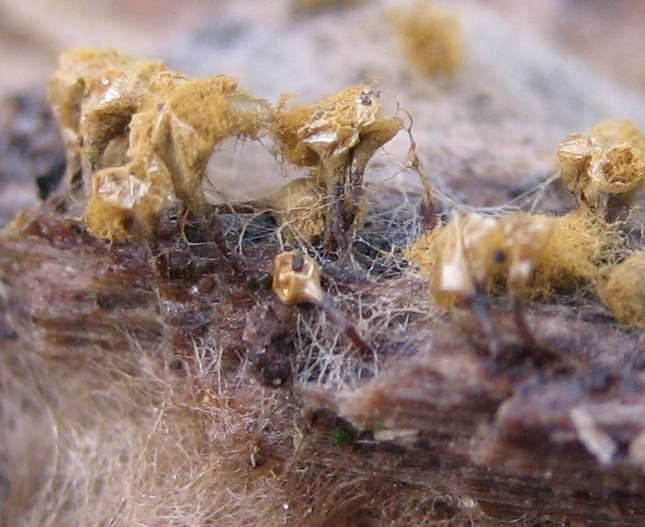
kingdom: Protozoa
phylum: Mycetozoa
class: Myxomycetes
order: Trichiales
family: Trichiaceae
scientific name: Trichiaceae
